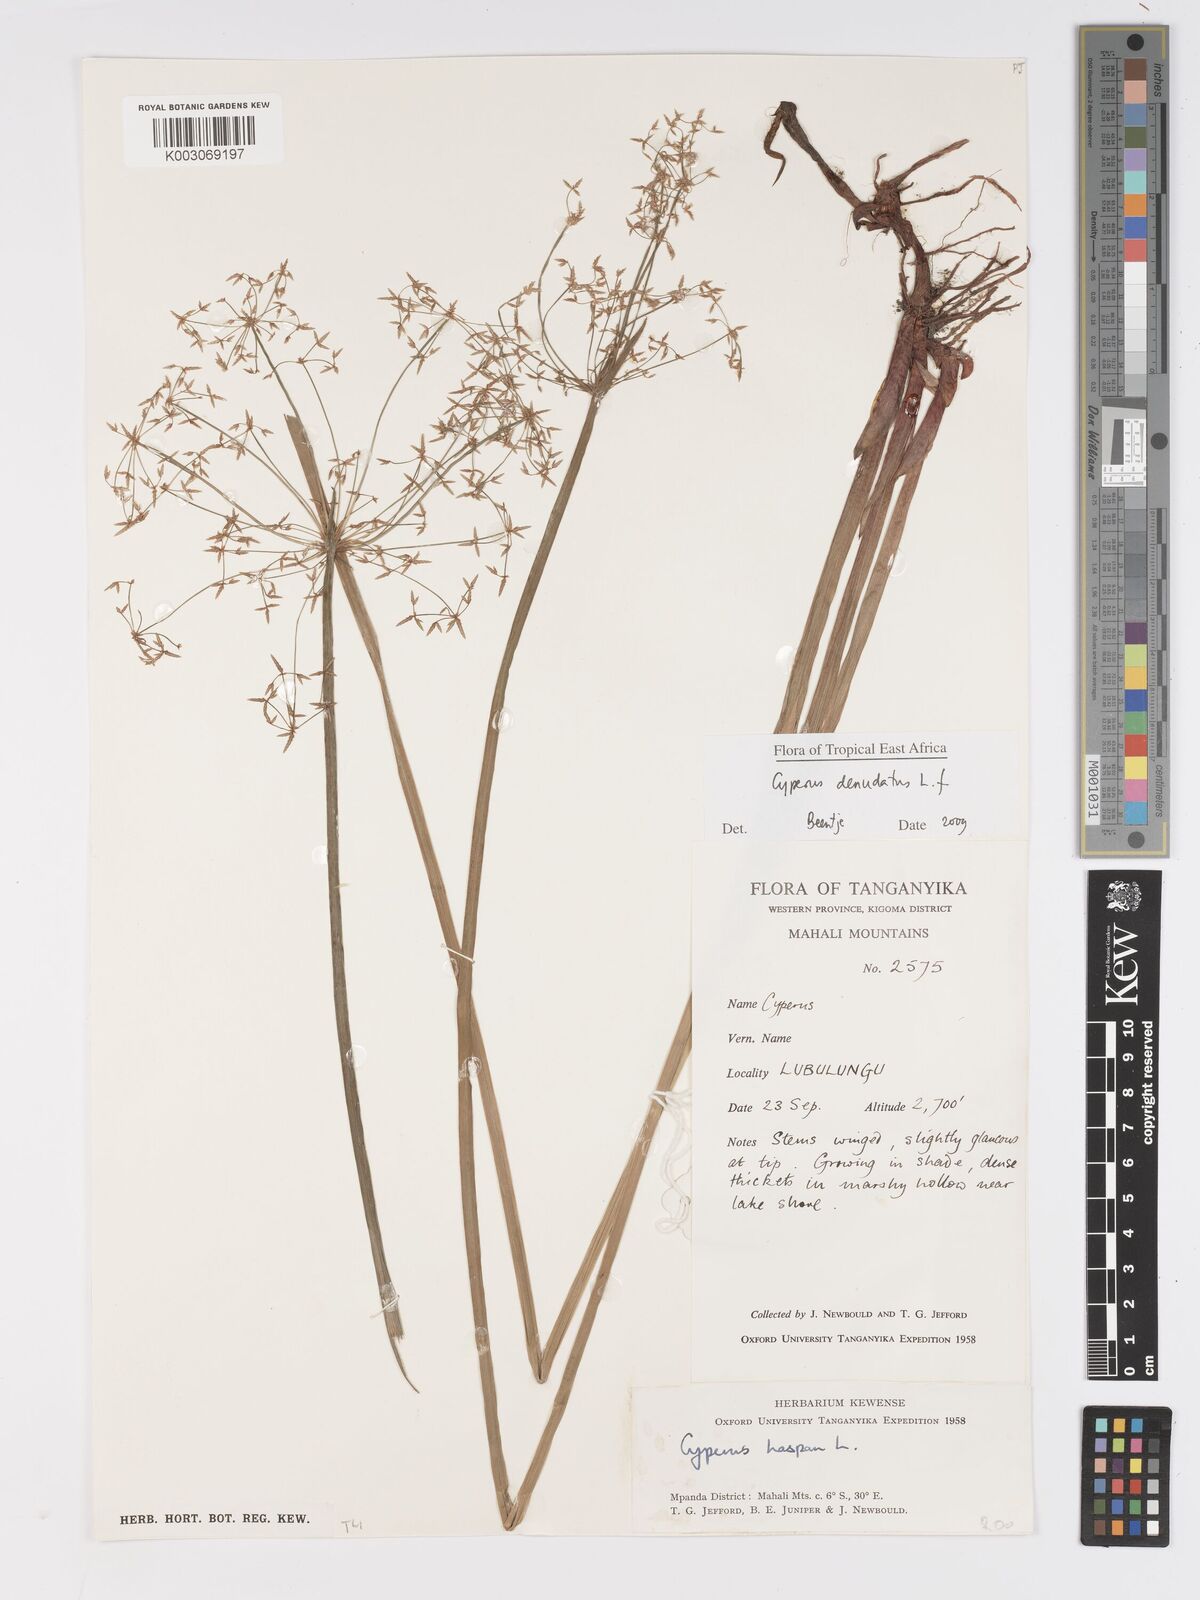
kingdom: Plantae
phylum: Tracheophyta
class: Liliopsida
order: Poales
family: Cyperaceae
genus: Cyperus
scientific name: Cyperus denudatus
